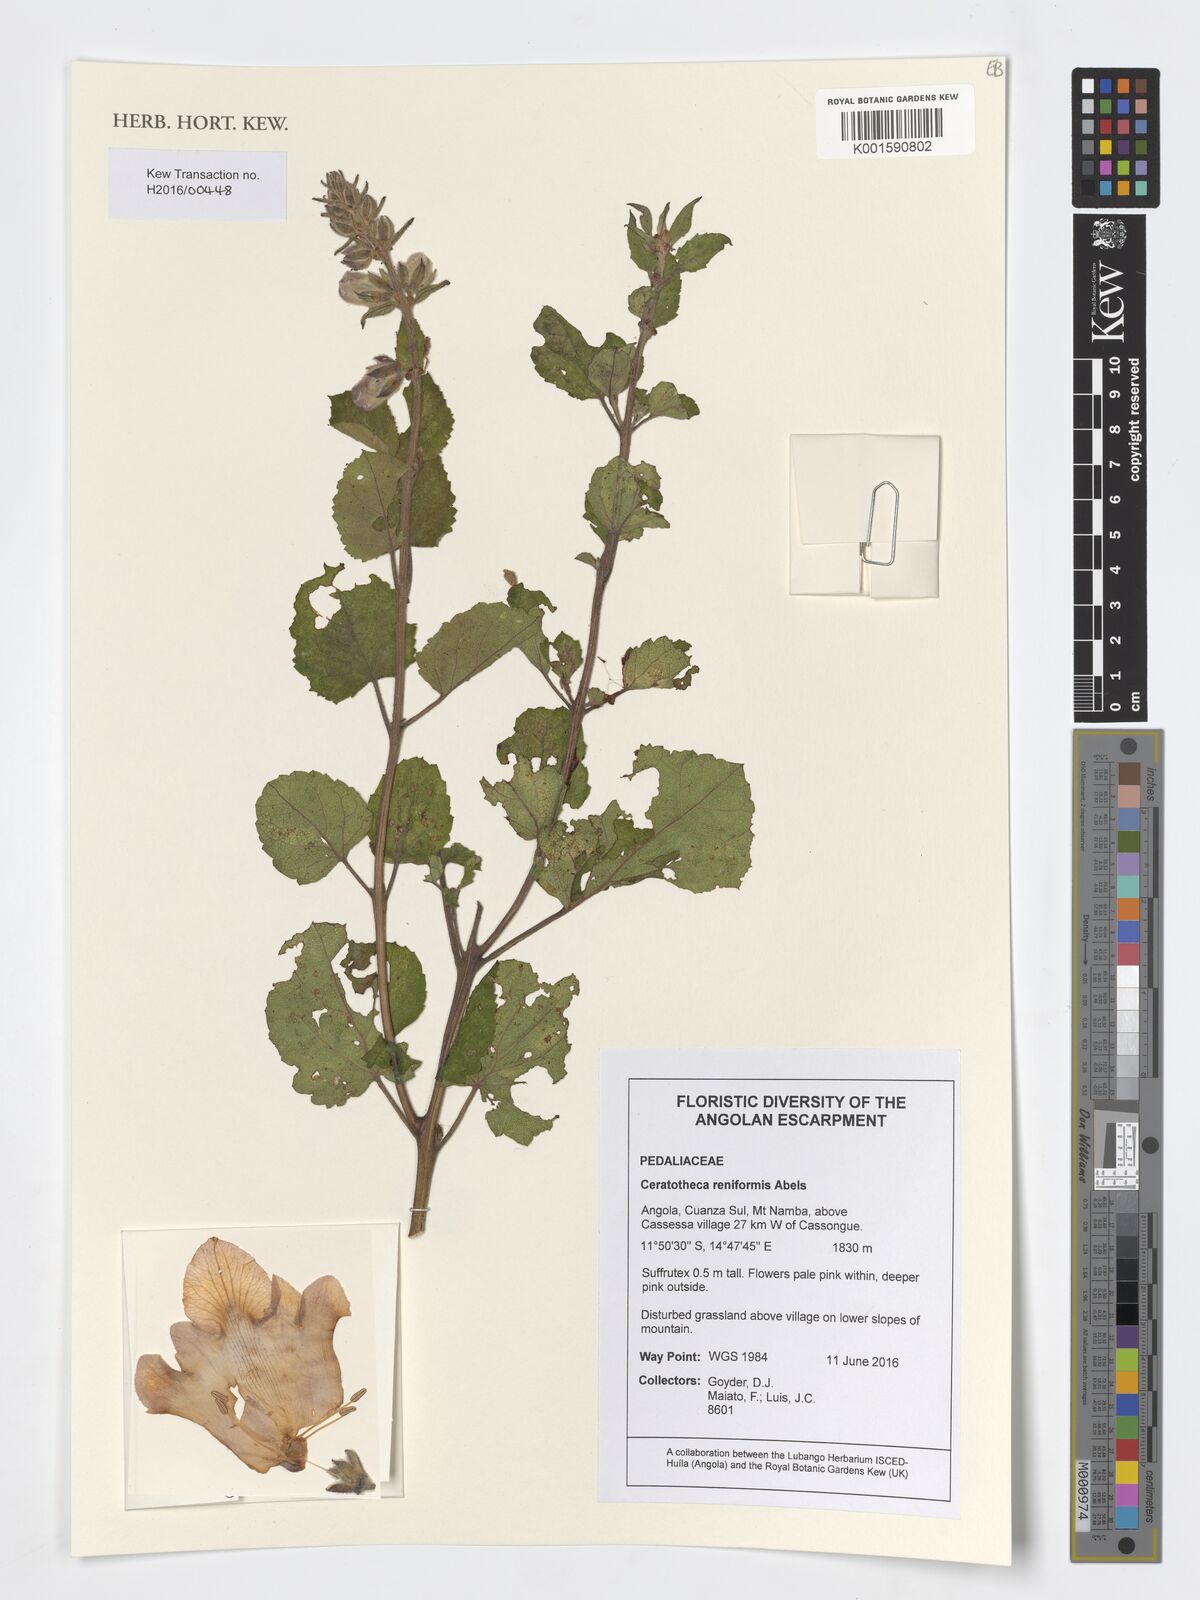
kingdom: Plantae
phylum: Tracheophyta
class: Magnoliopsida
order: Lamiales
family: Pedaliaceae
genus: Sesamum
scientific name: Sesamum reniforme
